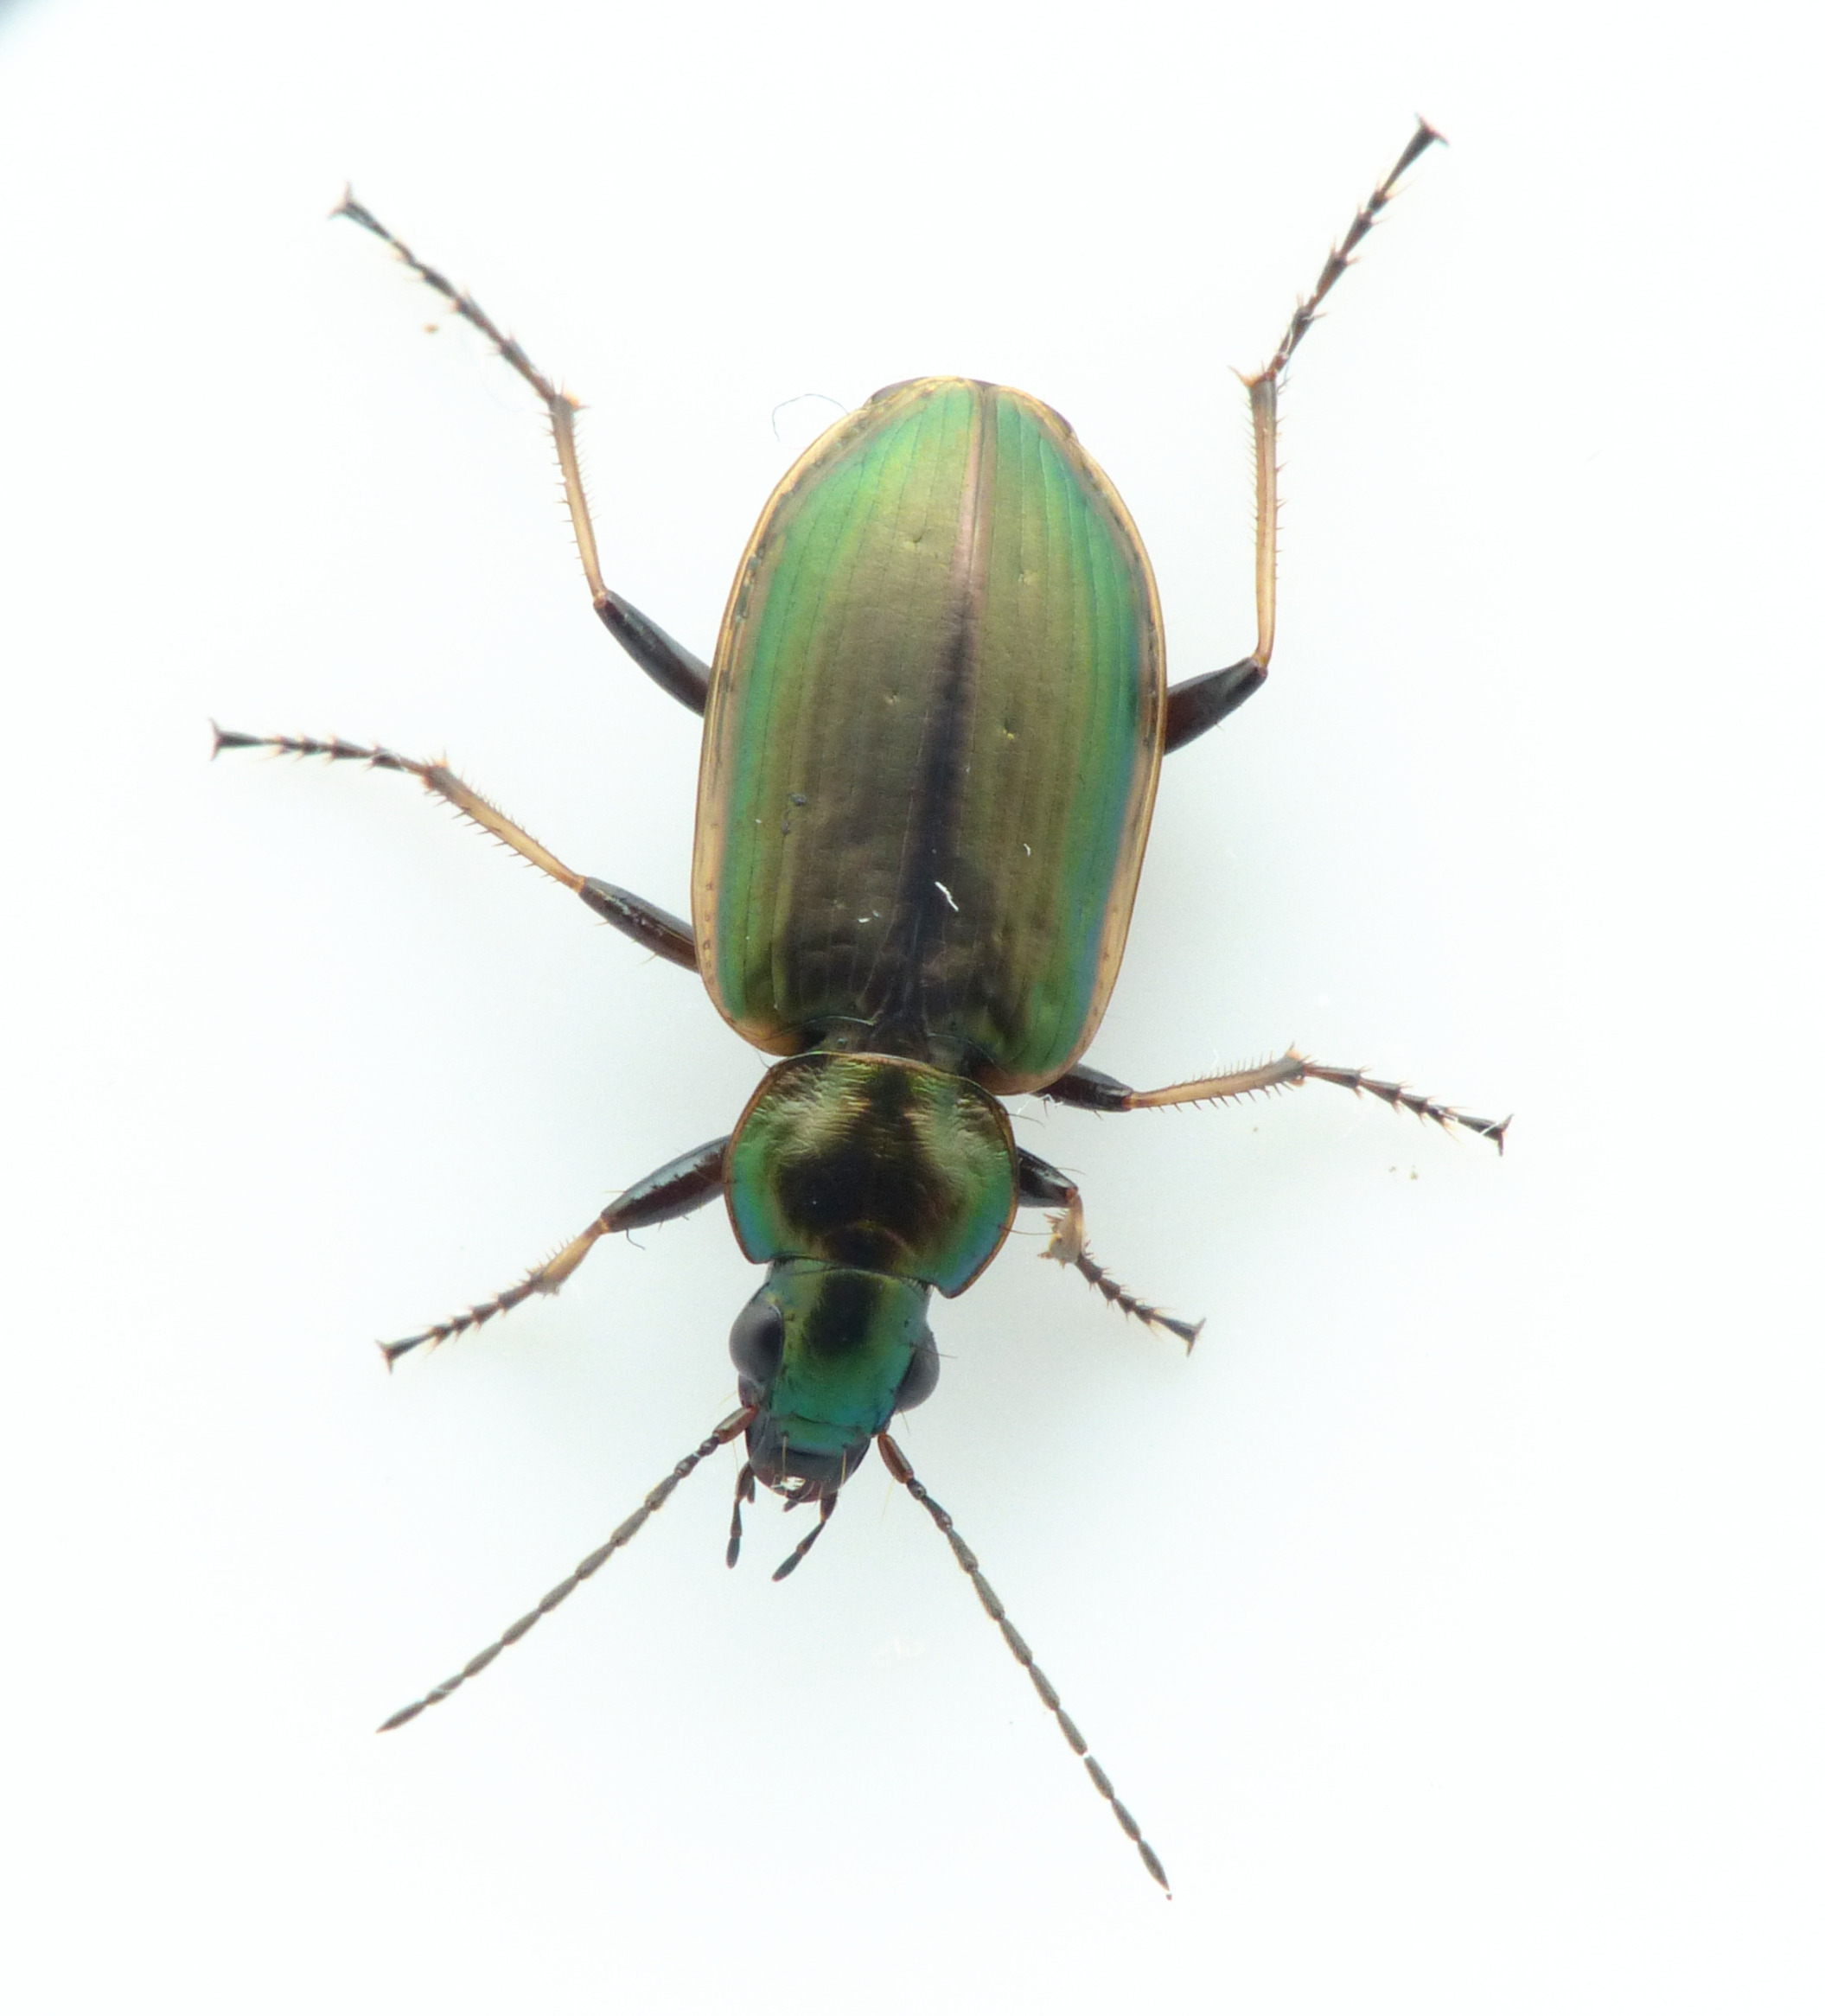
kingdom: Animalia
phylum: Arthropoda
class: Insecta
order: Coleoptera
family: Carabidae
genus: Agonum
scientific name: Agonum marginatum
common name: Gulrandet kvikløber
